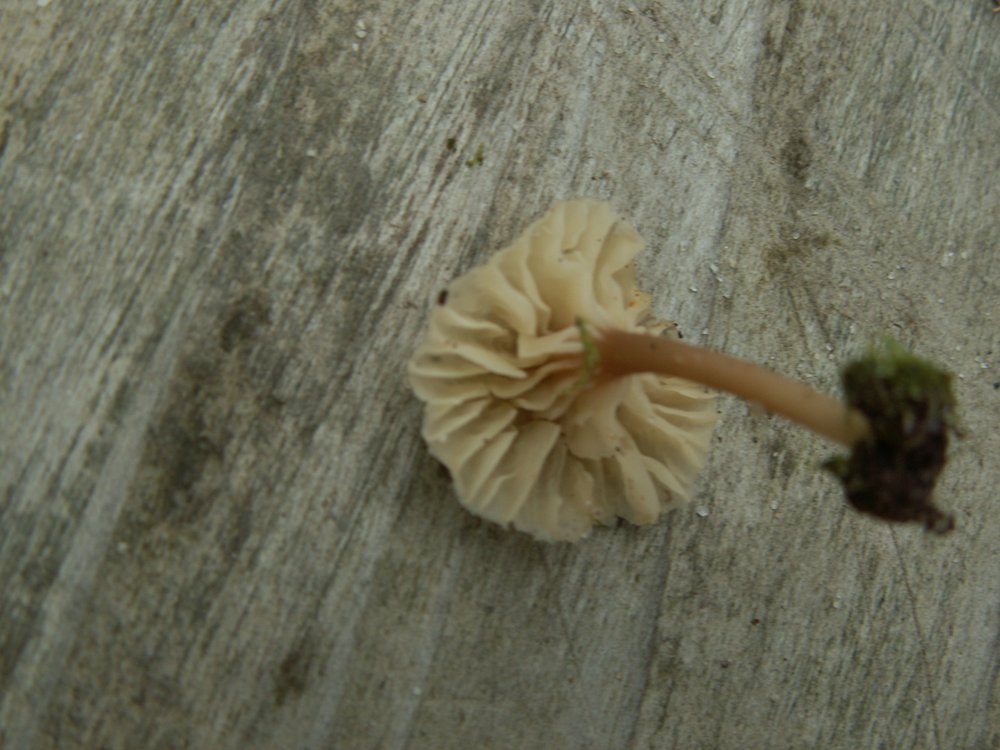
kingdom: Fungi
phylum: Basidiomycota
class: Agaricomycetes
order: Agaricales
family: Hygrophoraceae
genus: Lichenomphalia
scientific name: Lichenomphalia umbellifera
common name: tørve-lavhat
